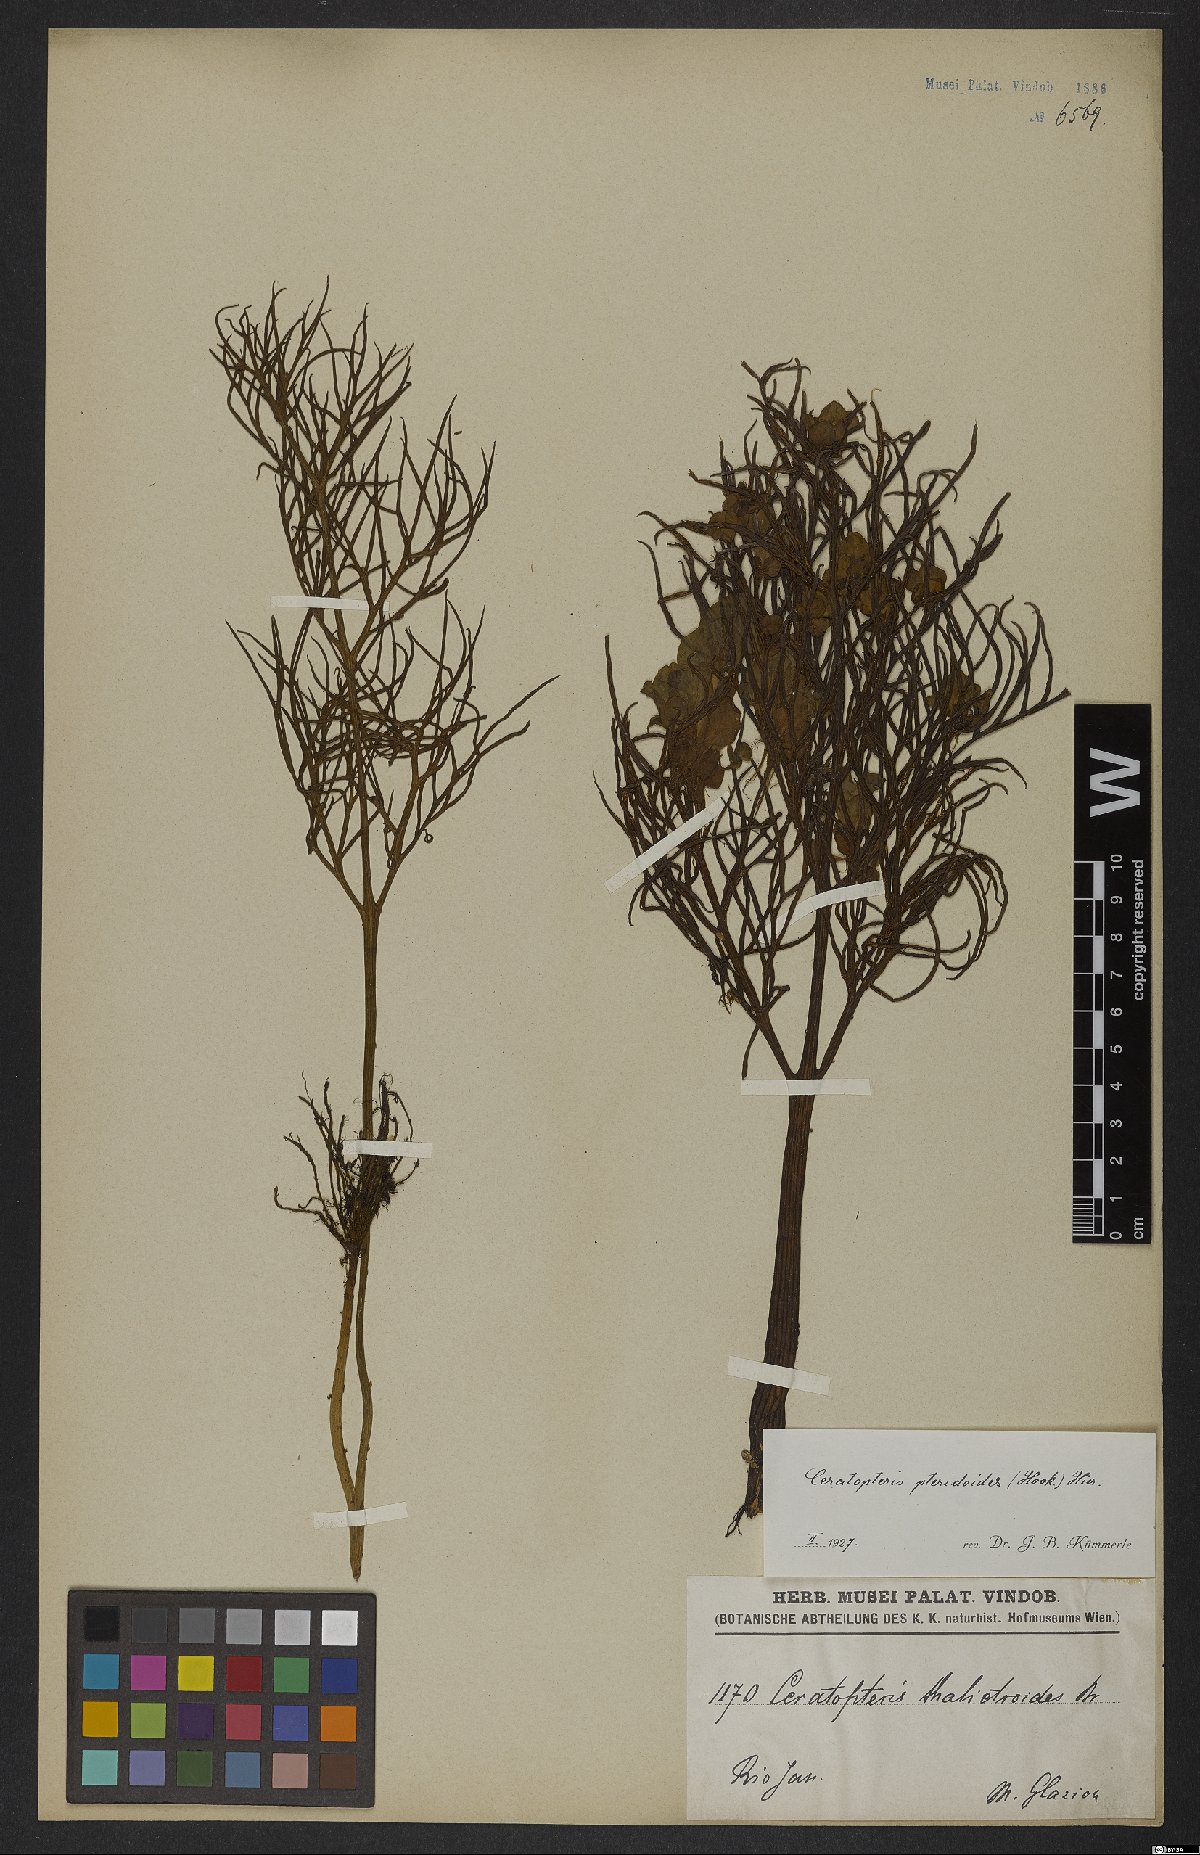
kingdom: Plantae
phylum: Tracheophyta
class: Polypodiopsida
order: Polypodiales
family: Pteridaceae
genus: Ceratopteris
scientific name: Ceratopteris pteridoides
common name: Floating fern
